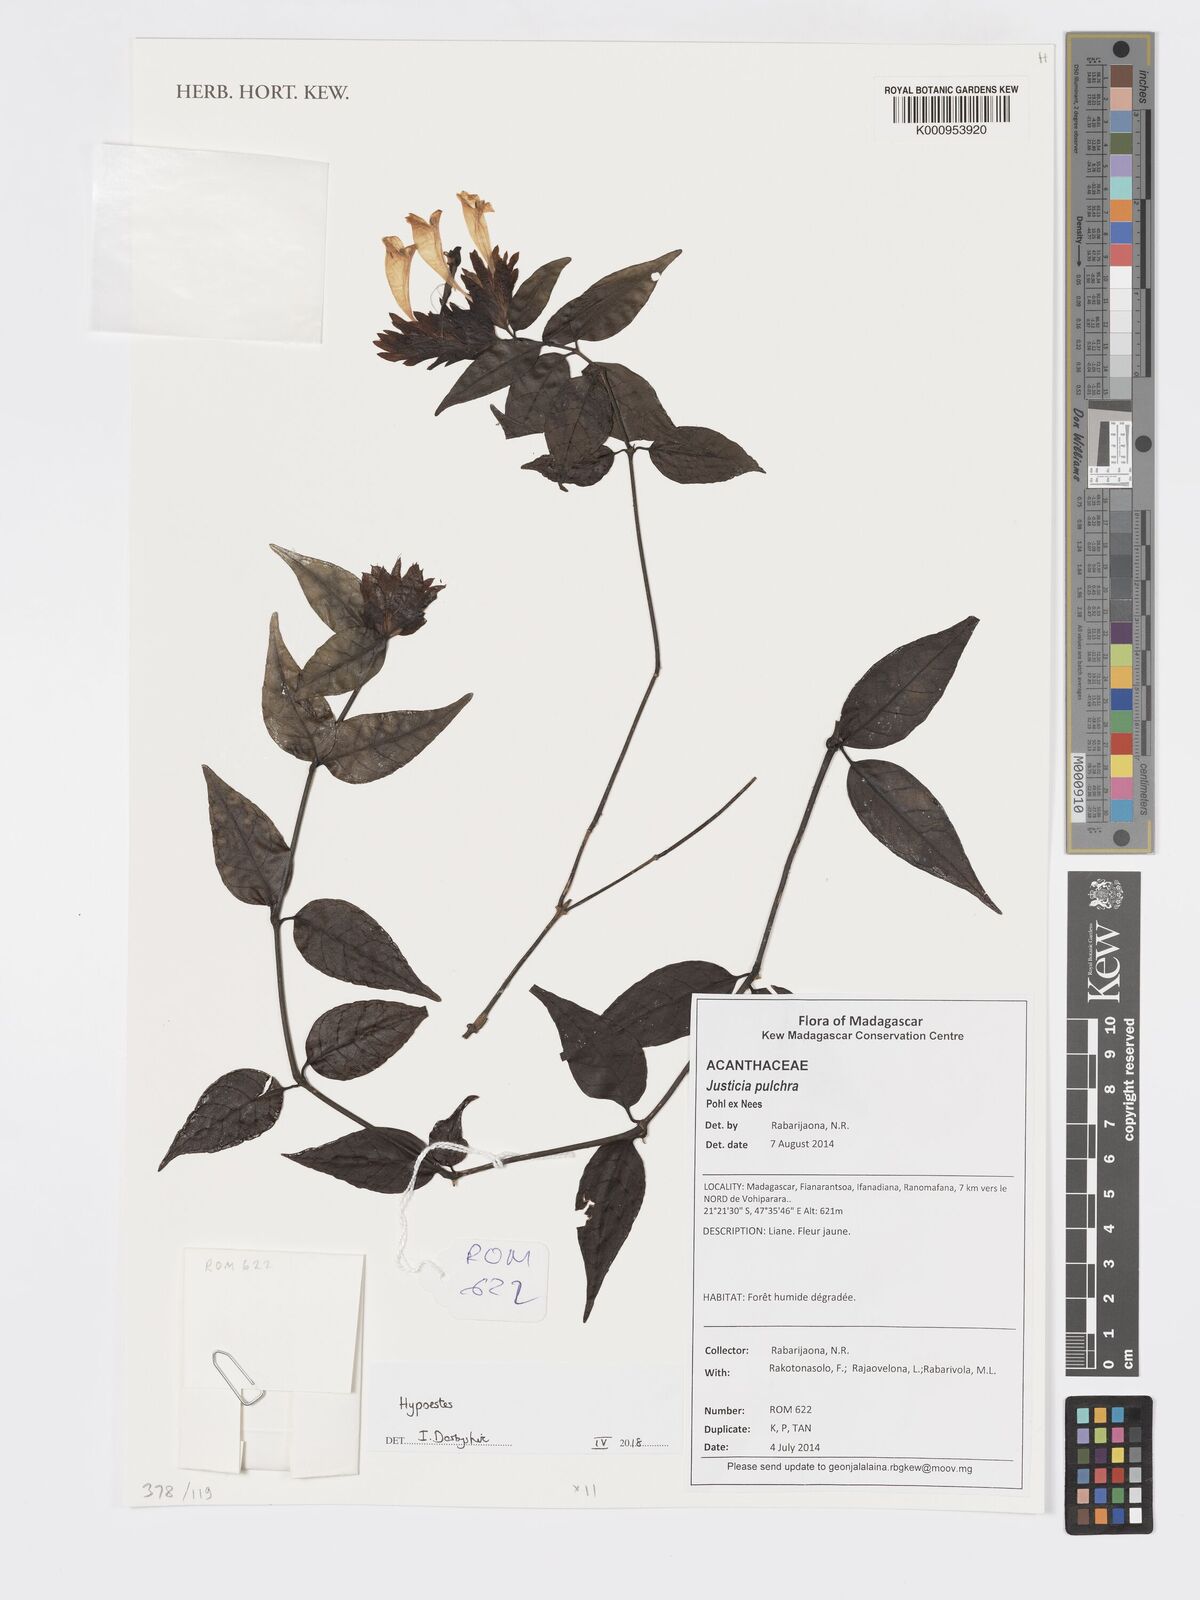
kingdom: Plantae
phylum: Tracheophyta
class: Magnoliopsida
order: Lamiales
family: Acanthaceae
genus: Hypoestes
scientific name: Hypoestes
